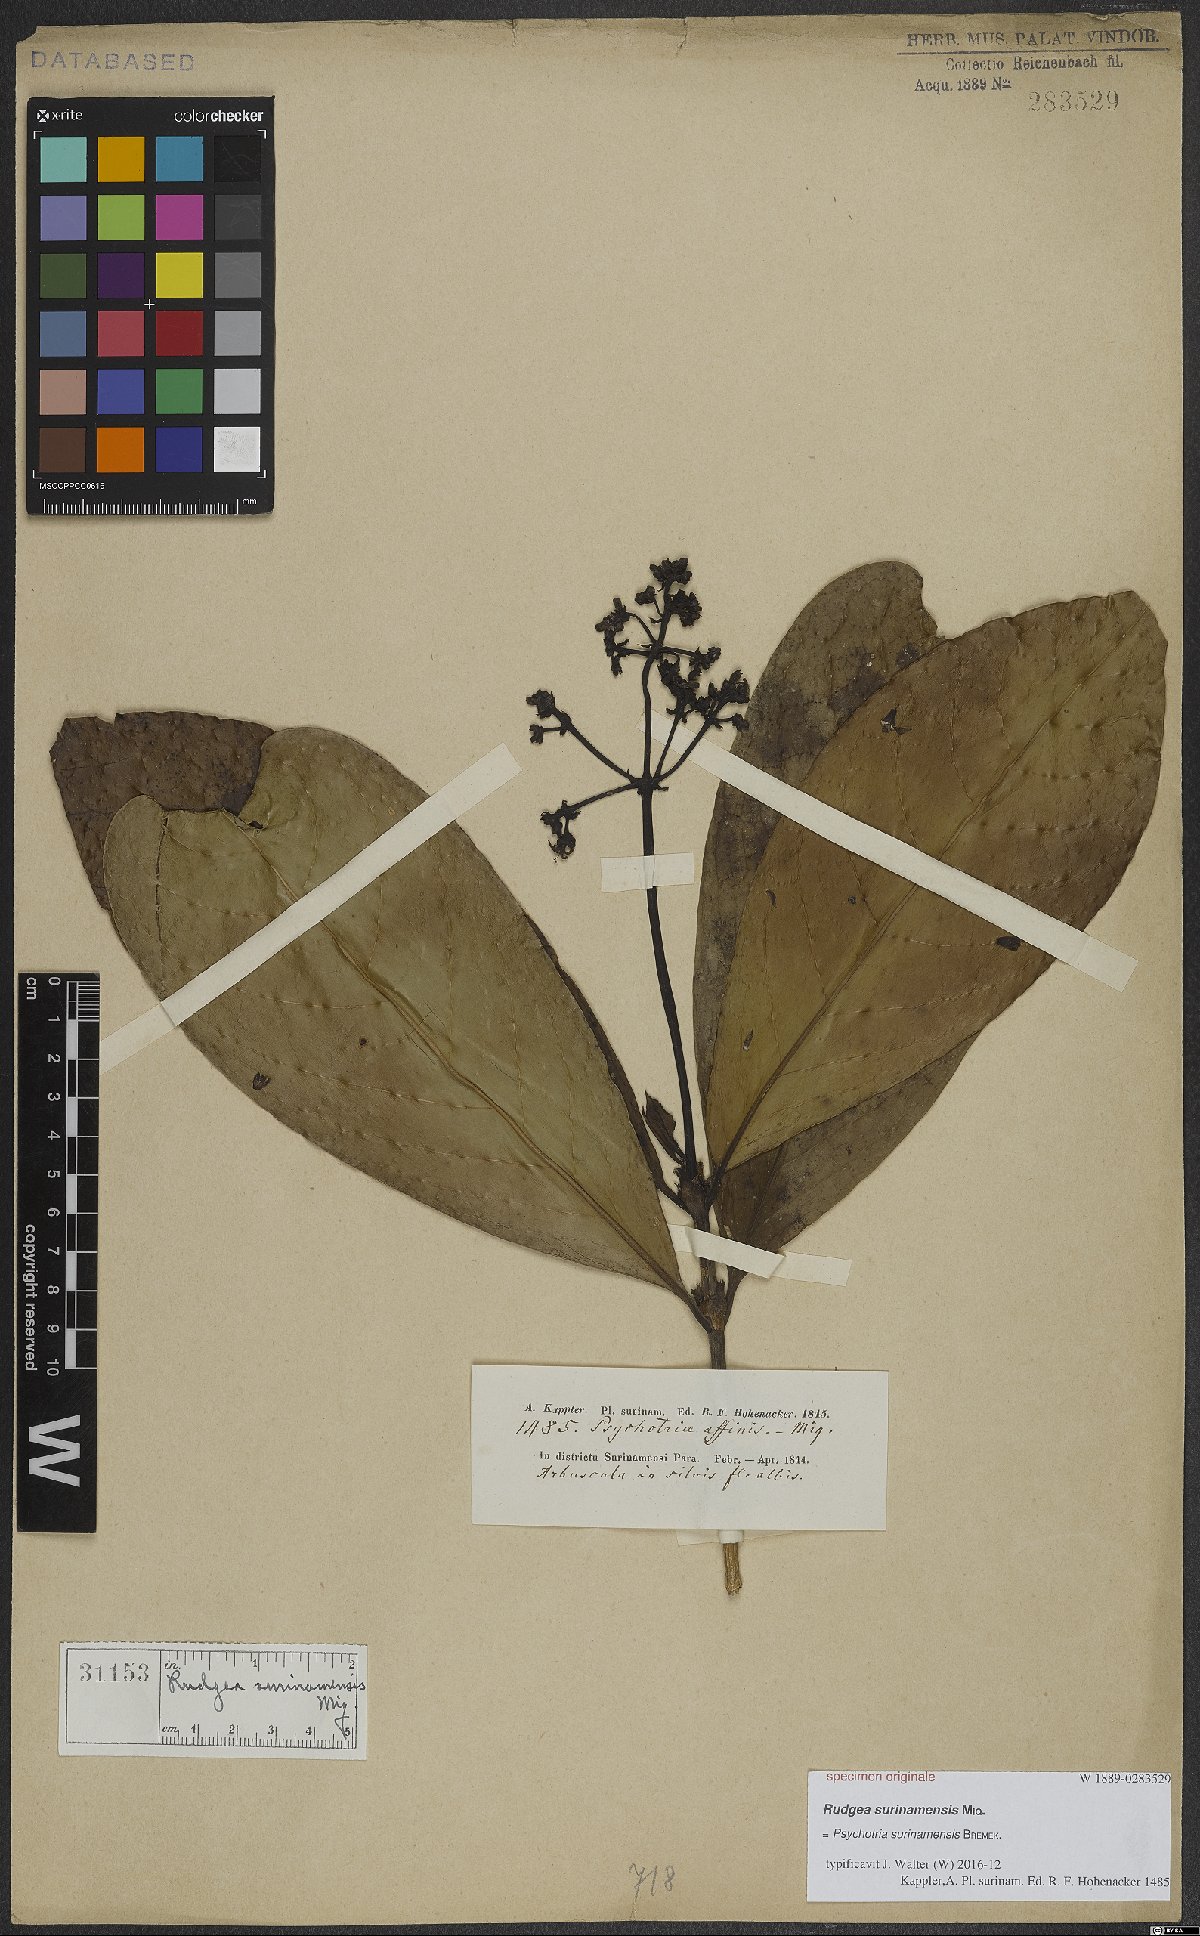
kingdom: Plantae
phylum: Tracheophyta
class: Magnoliopsida
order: Gentianales
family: Rubiaceae
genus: Palicourea
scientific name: Palicourea microbotrys
